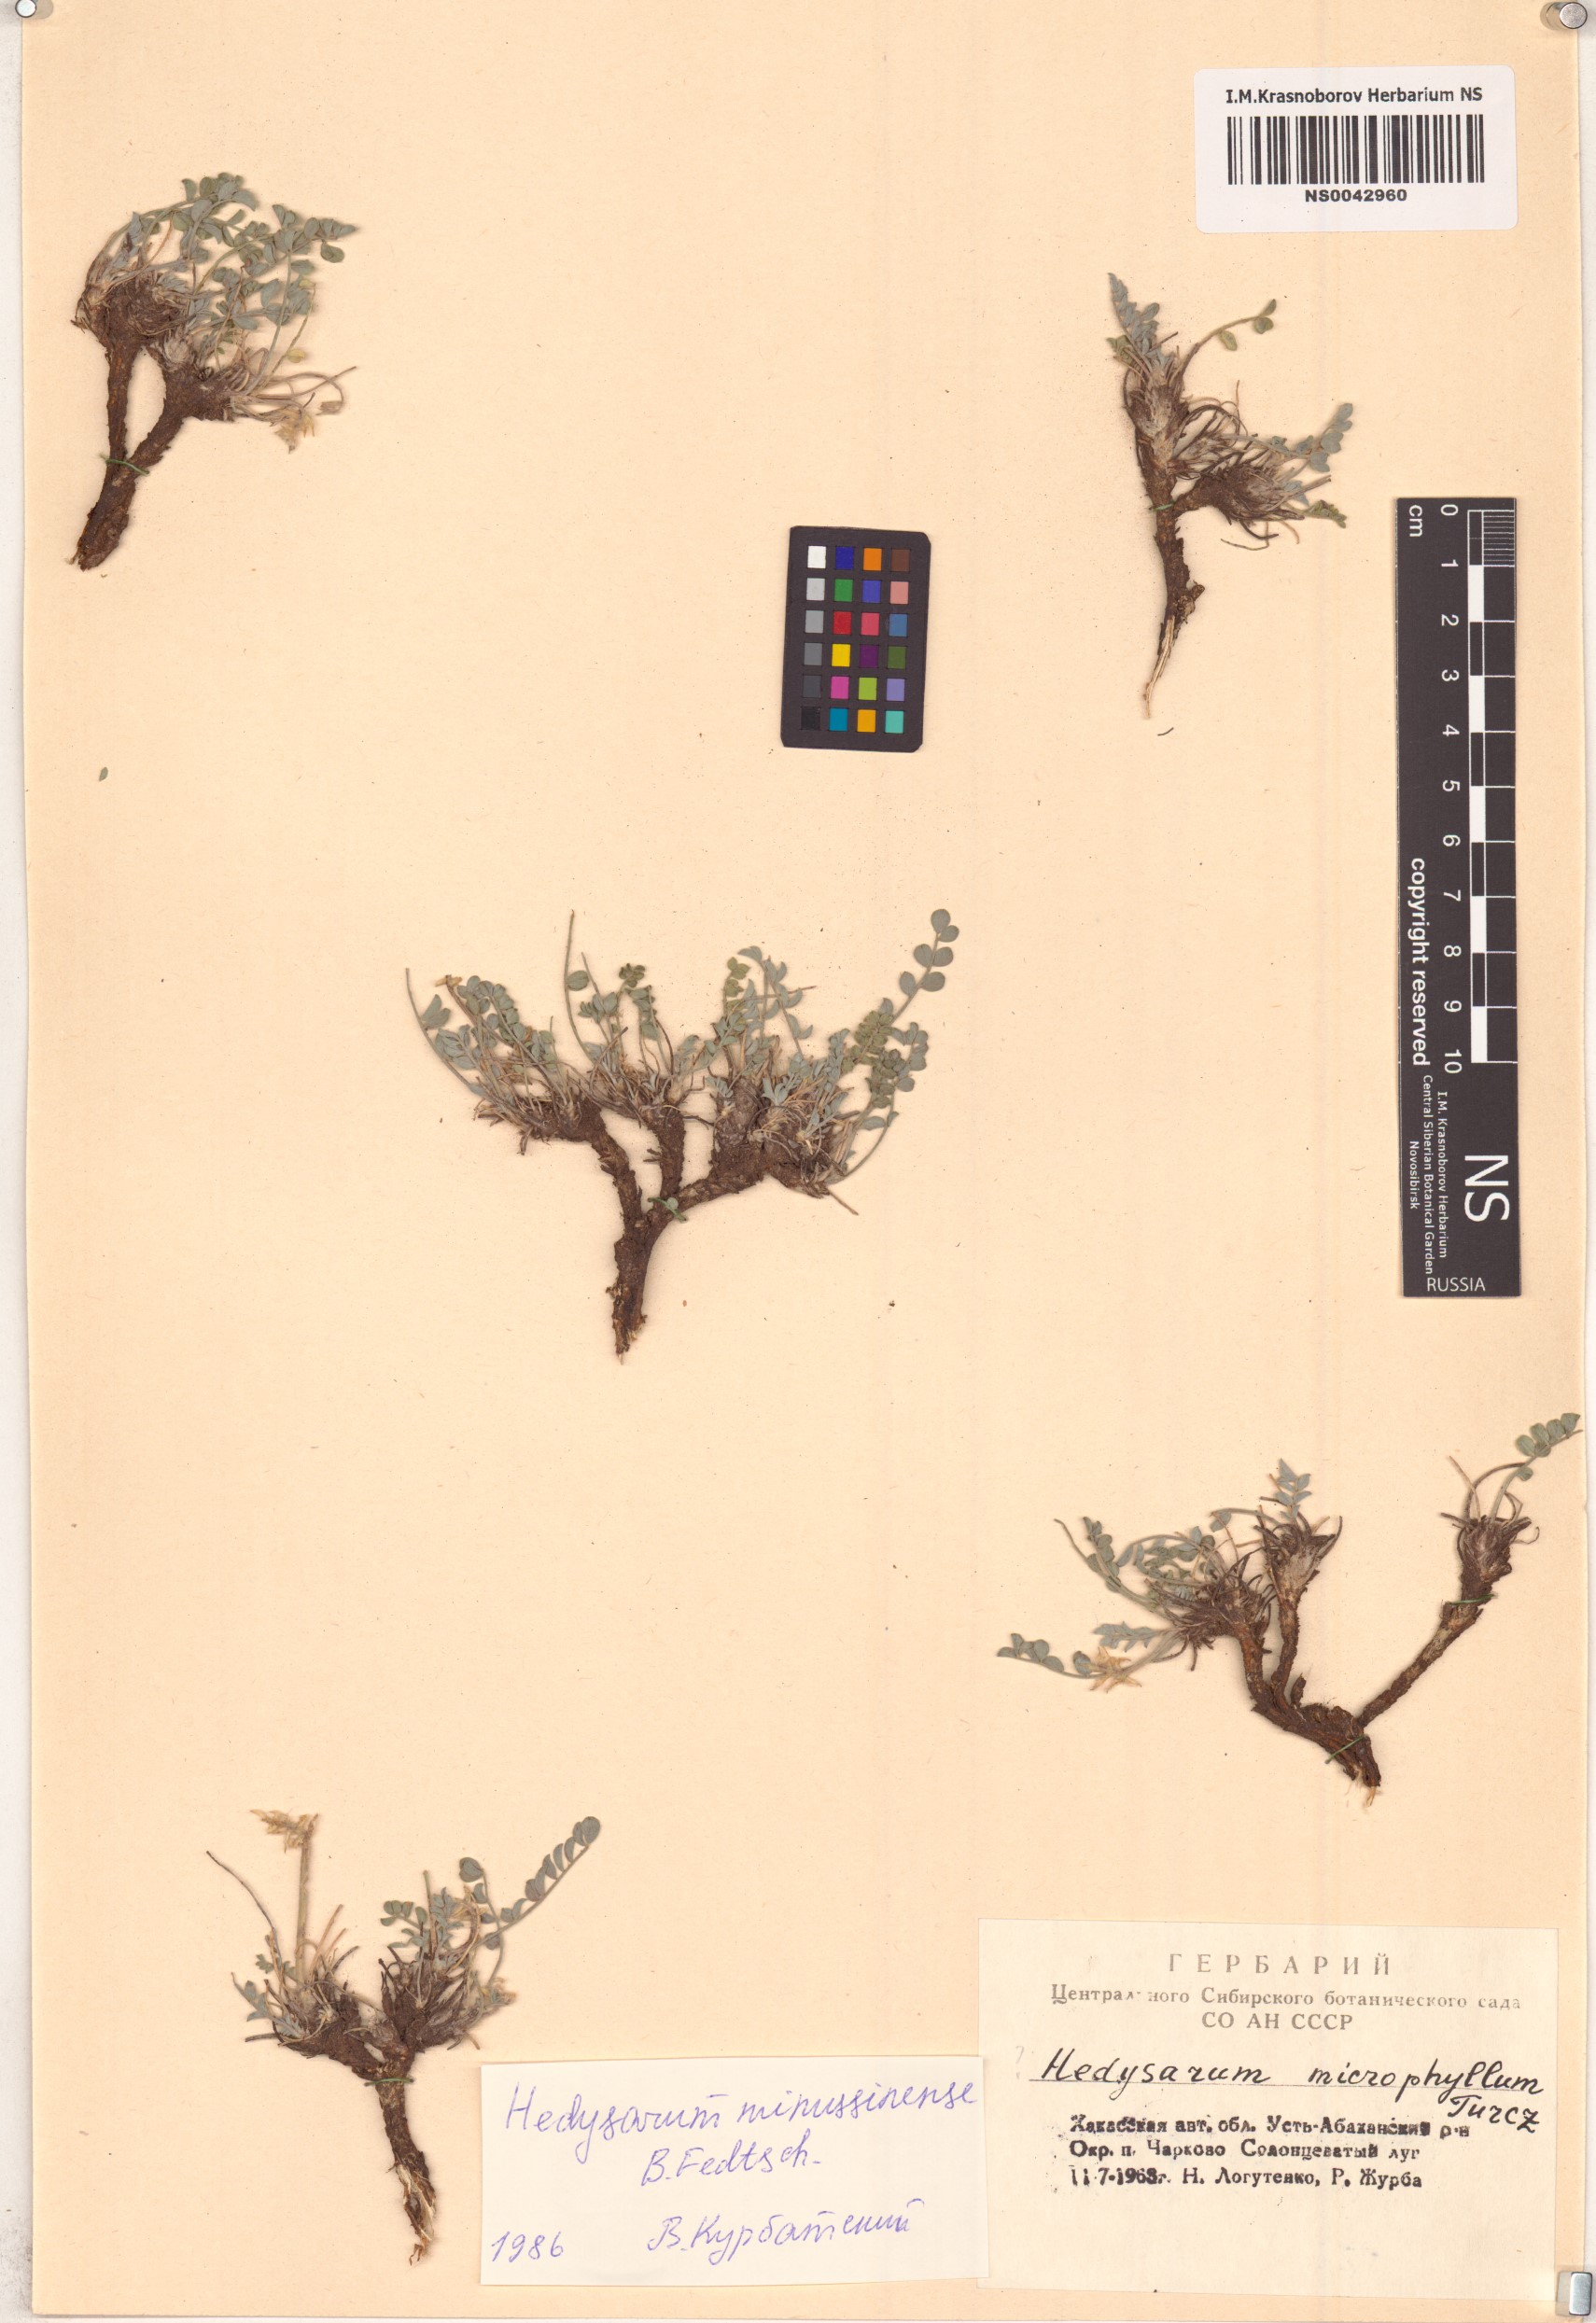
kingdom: Plantae
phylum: Tracheophyta
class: Magnoliopsida
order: Fabales
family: Fabaceae
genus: Hedysarum
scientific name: Hedysarum minussinense
